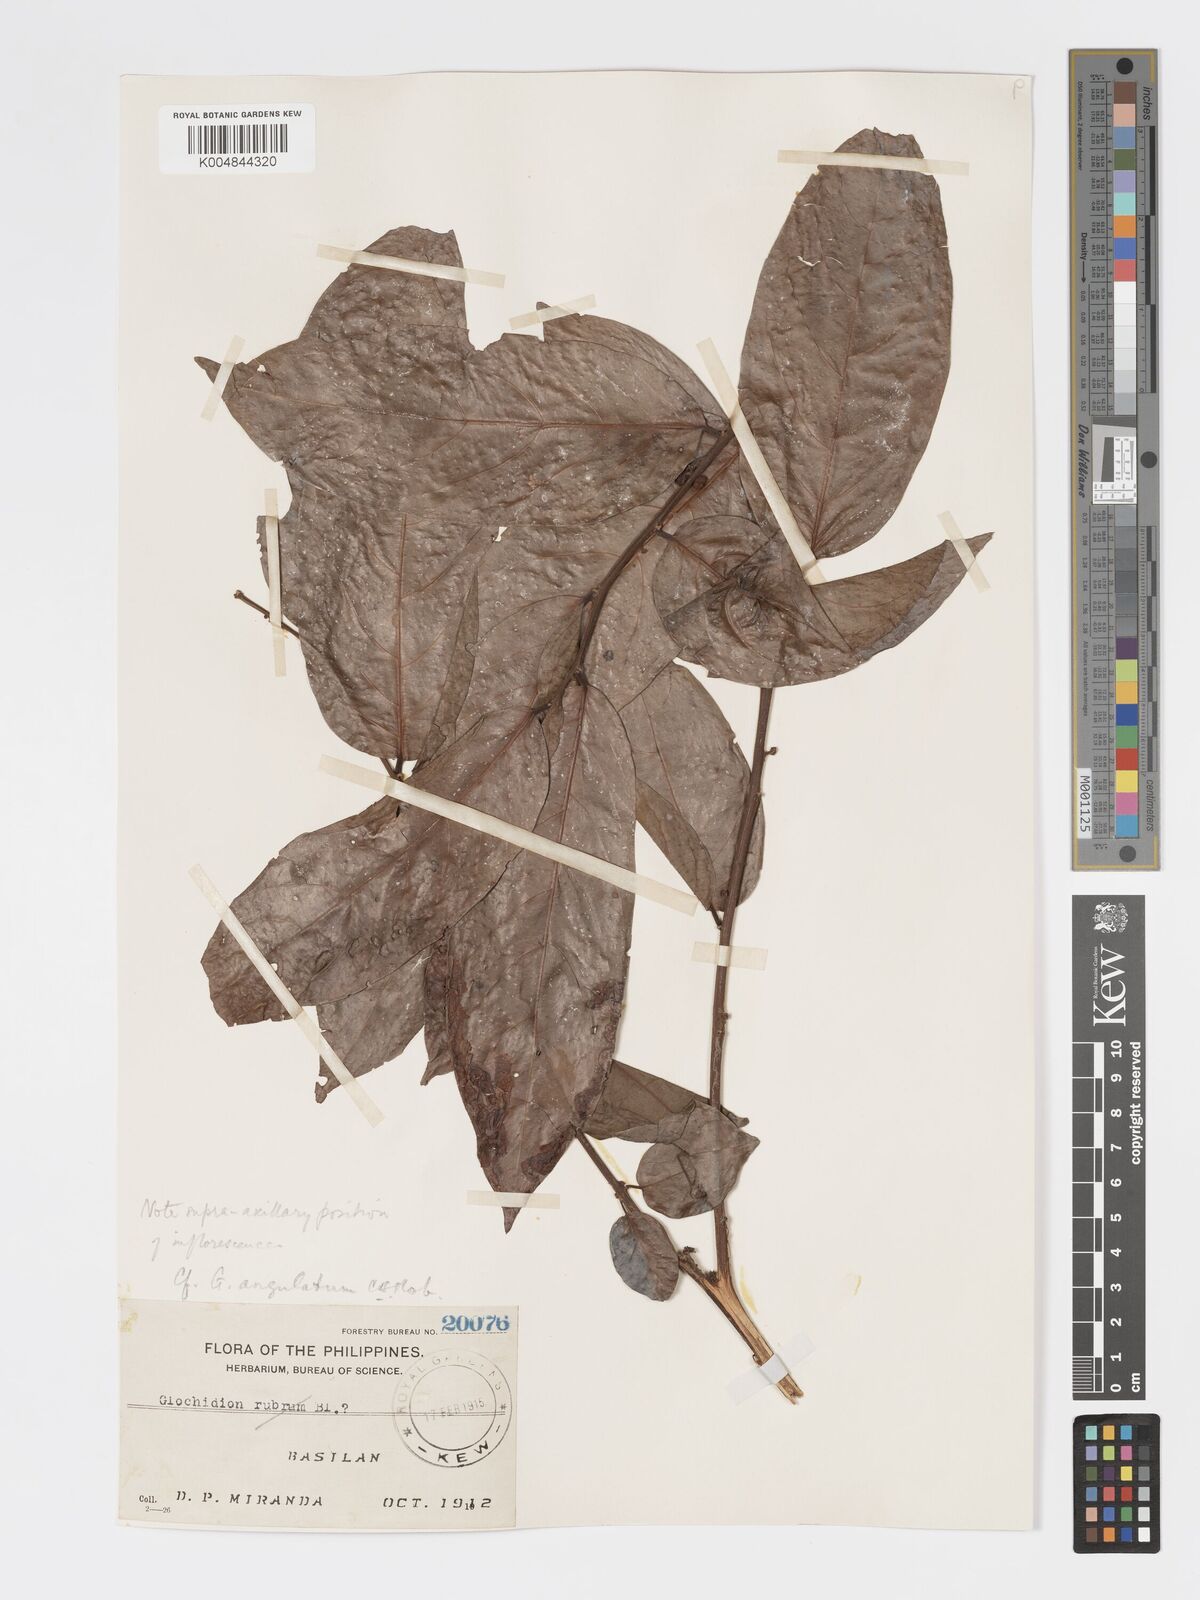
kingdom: Plantae
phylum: Tracheophyta
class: Magnoliopsida
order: Malpighiales
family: Phyllanthaceae
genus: Glochidion
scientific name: Glochidion angulatum
